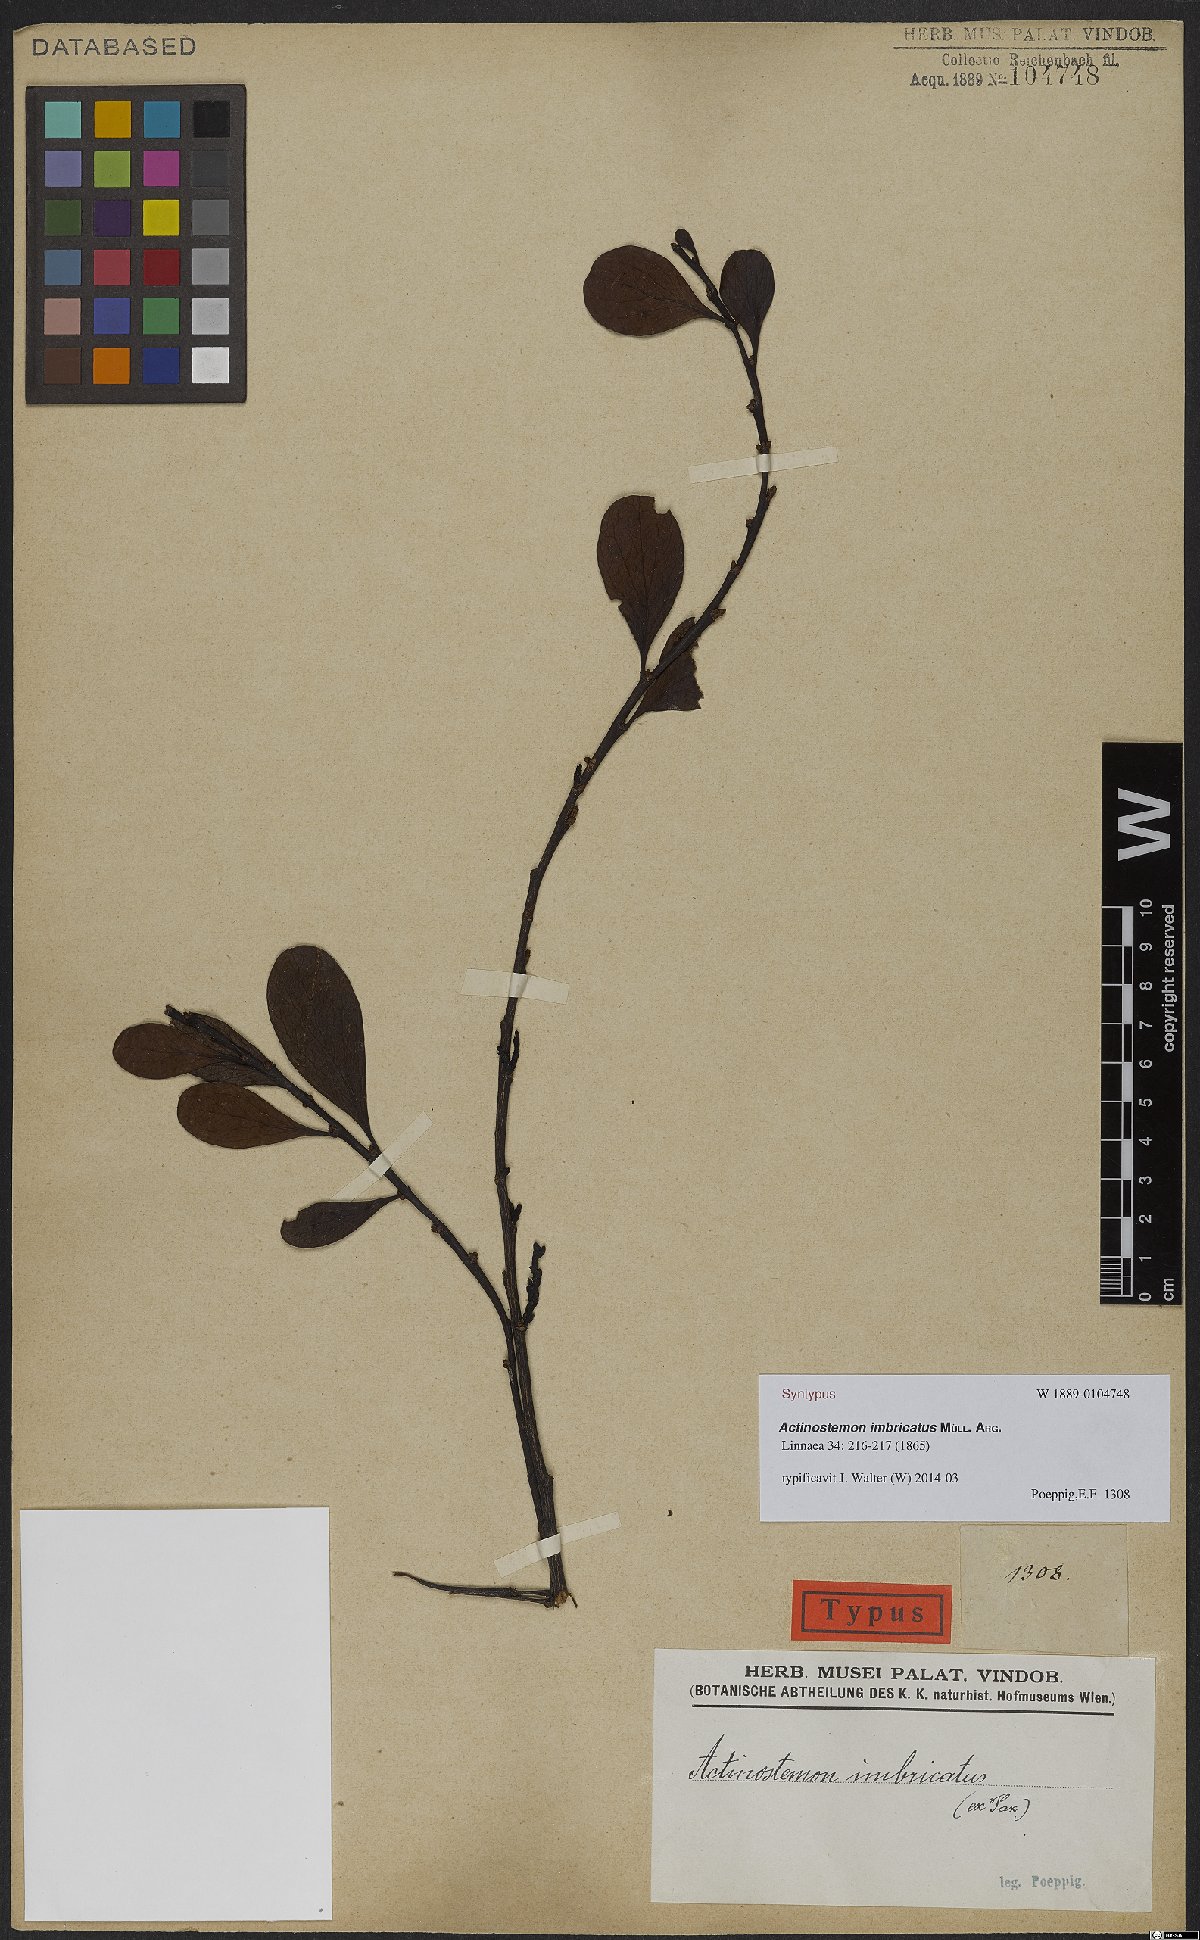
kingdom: Plantae
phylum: Tracheophyta
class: Magnoliopsida
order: Malpighiales
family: Euphorbiaceae
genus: Actinostemon
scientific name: Actinostemon imbricatus
